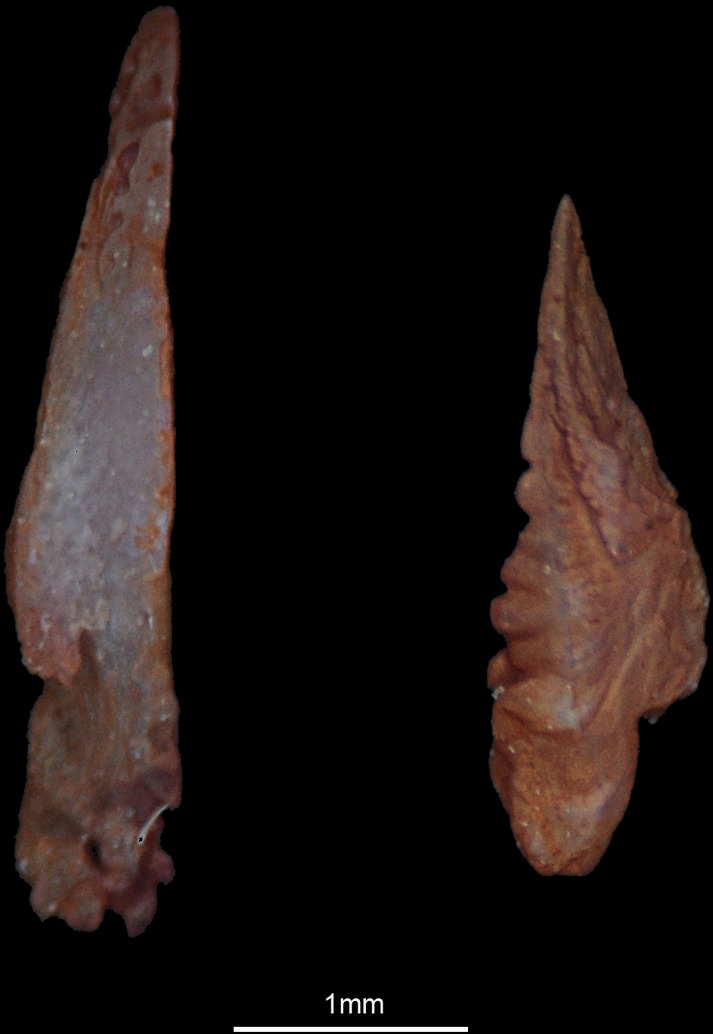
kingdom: Animalia
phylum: Chordata
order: Perciformes
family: Siganidae
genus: Siganus
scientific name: Siganus canaliculatus
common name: White-spotted spinefoot
